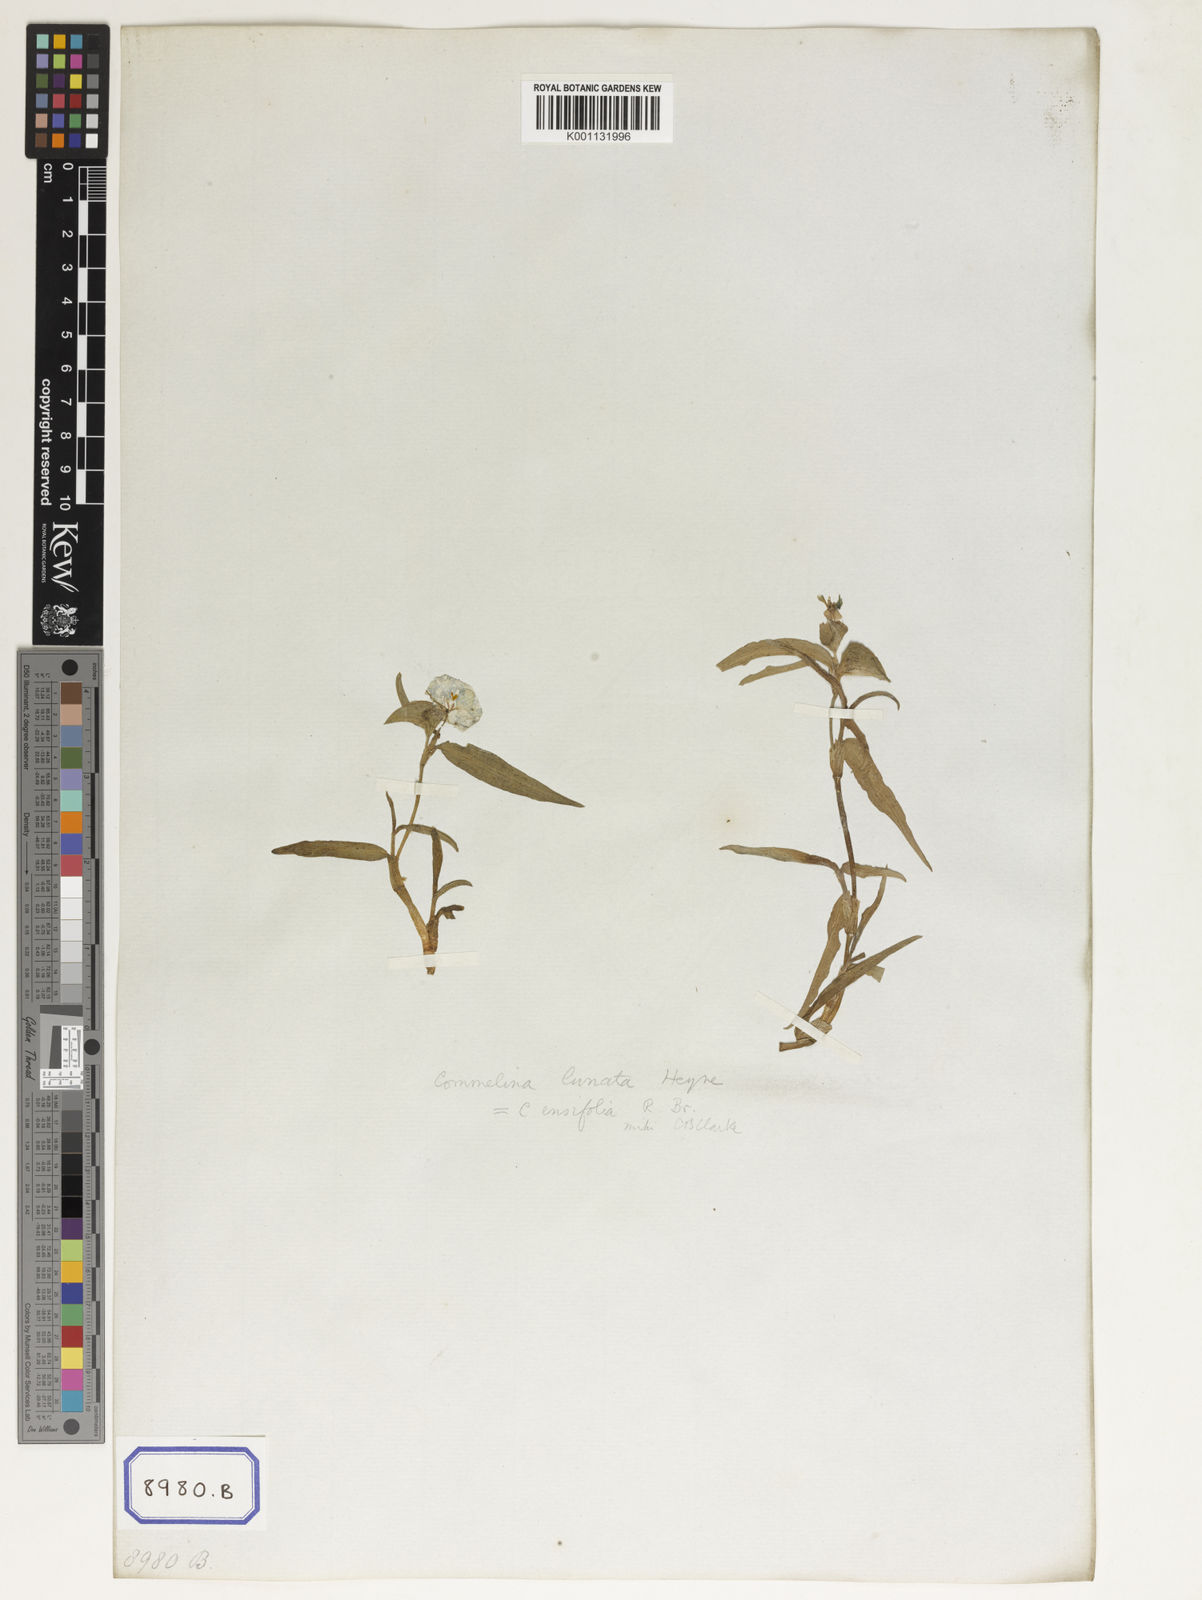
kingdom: Plantae
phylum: Tracheophyta
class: Liliopsida
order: Commelinales
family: Commelinaceae
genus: Commelina
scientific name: Commelina benghalensis
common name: Jio
